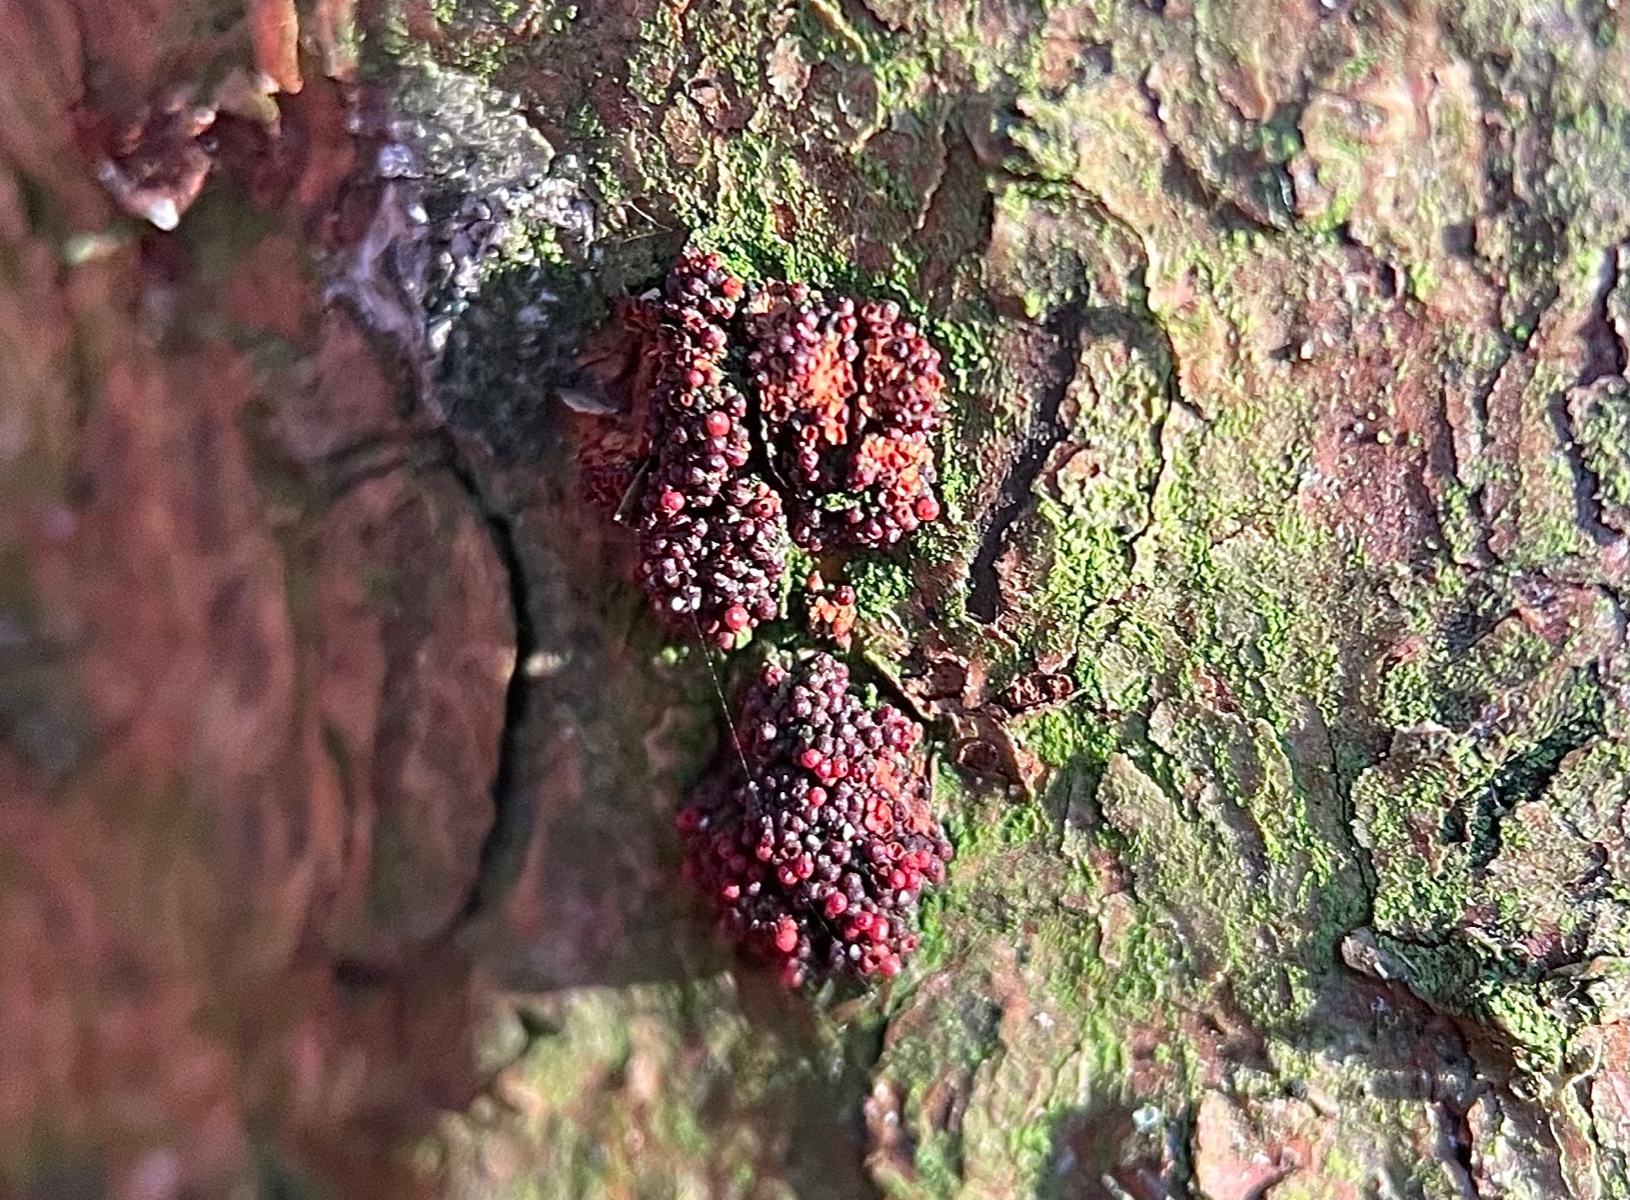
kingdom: Fungi
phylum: Ascomycota
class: Sordariomycetes
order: Hypocreales
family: Nectriaceae
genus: Corinectria
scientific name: Corinectria fuckeliana
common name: grankræft-cinnobersvamp
